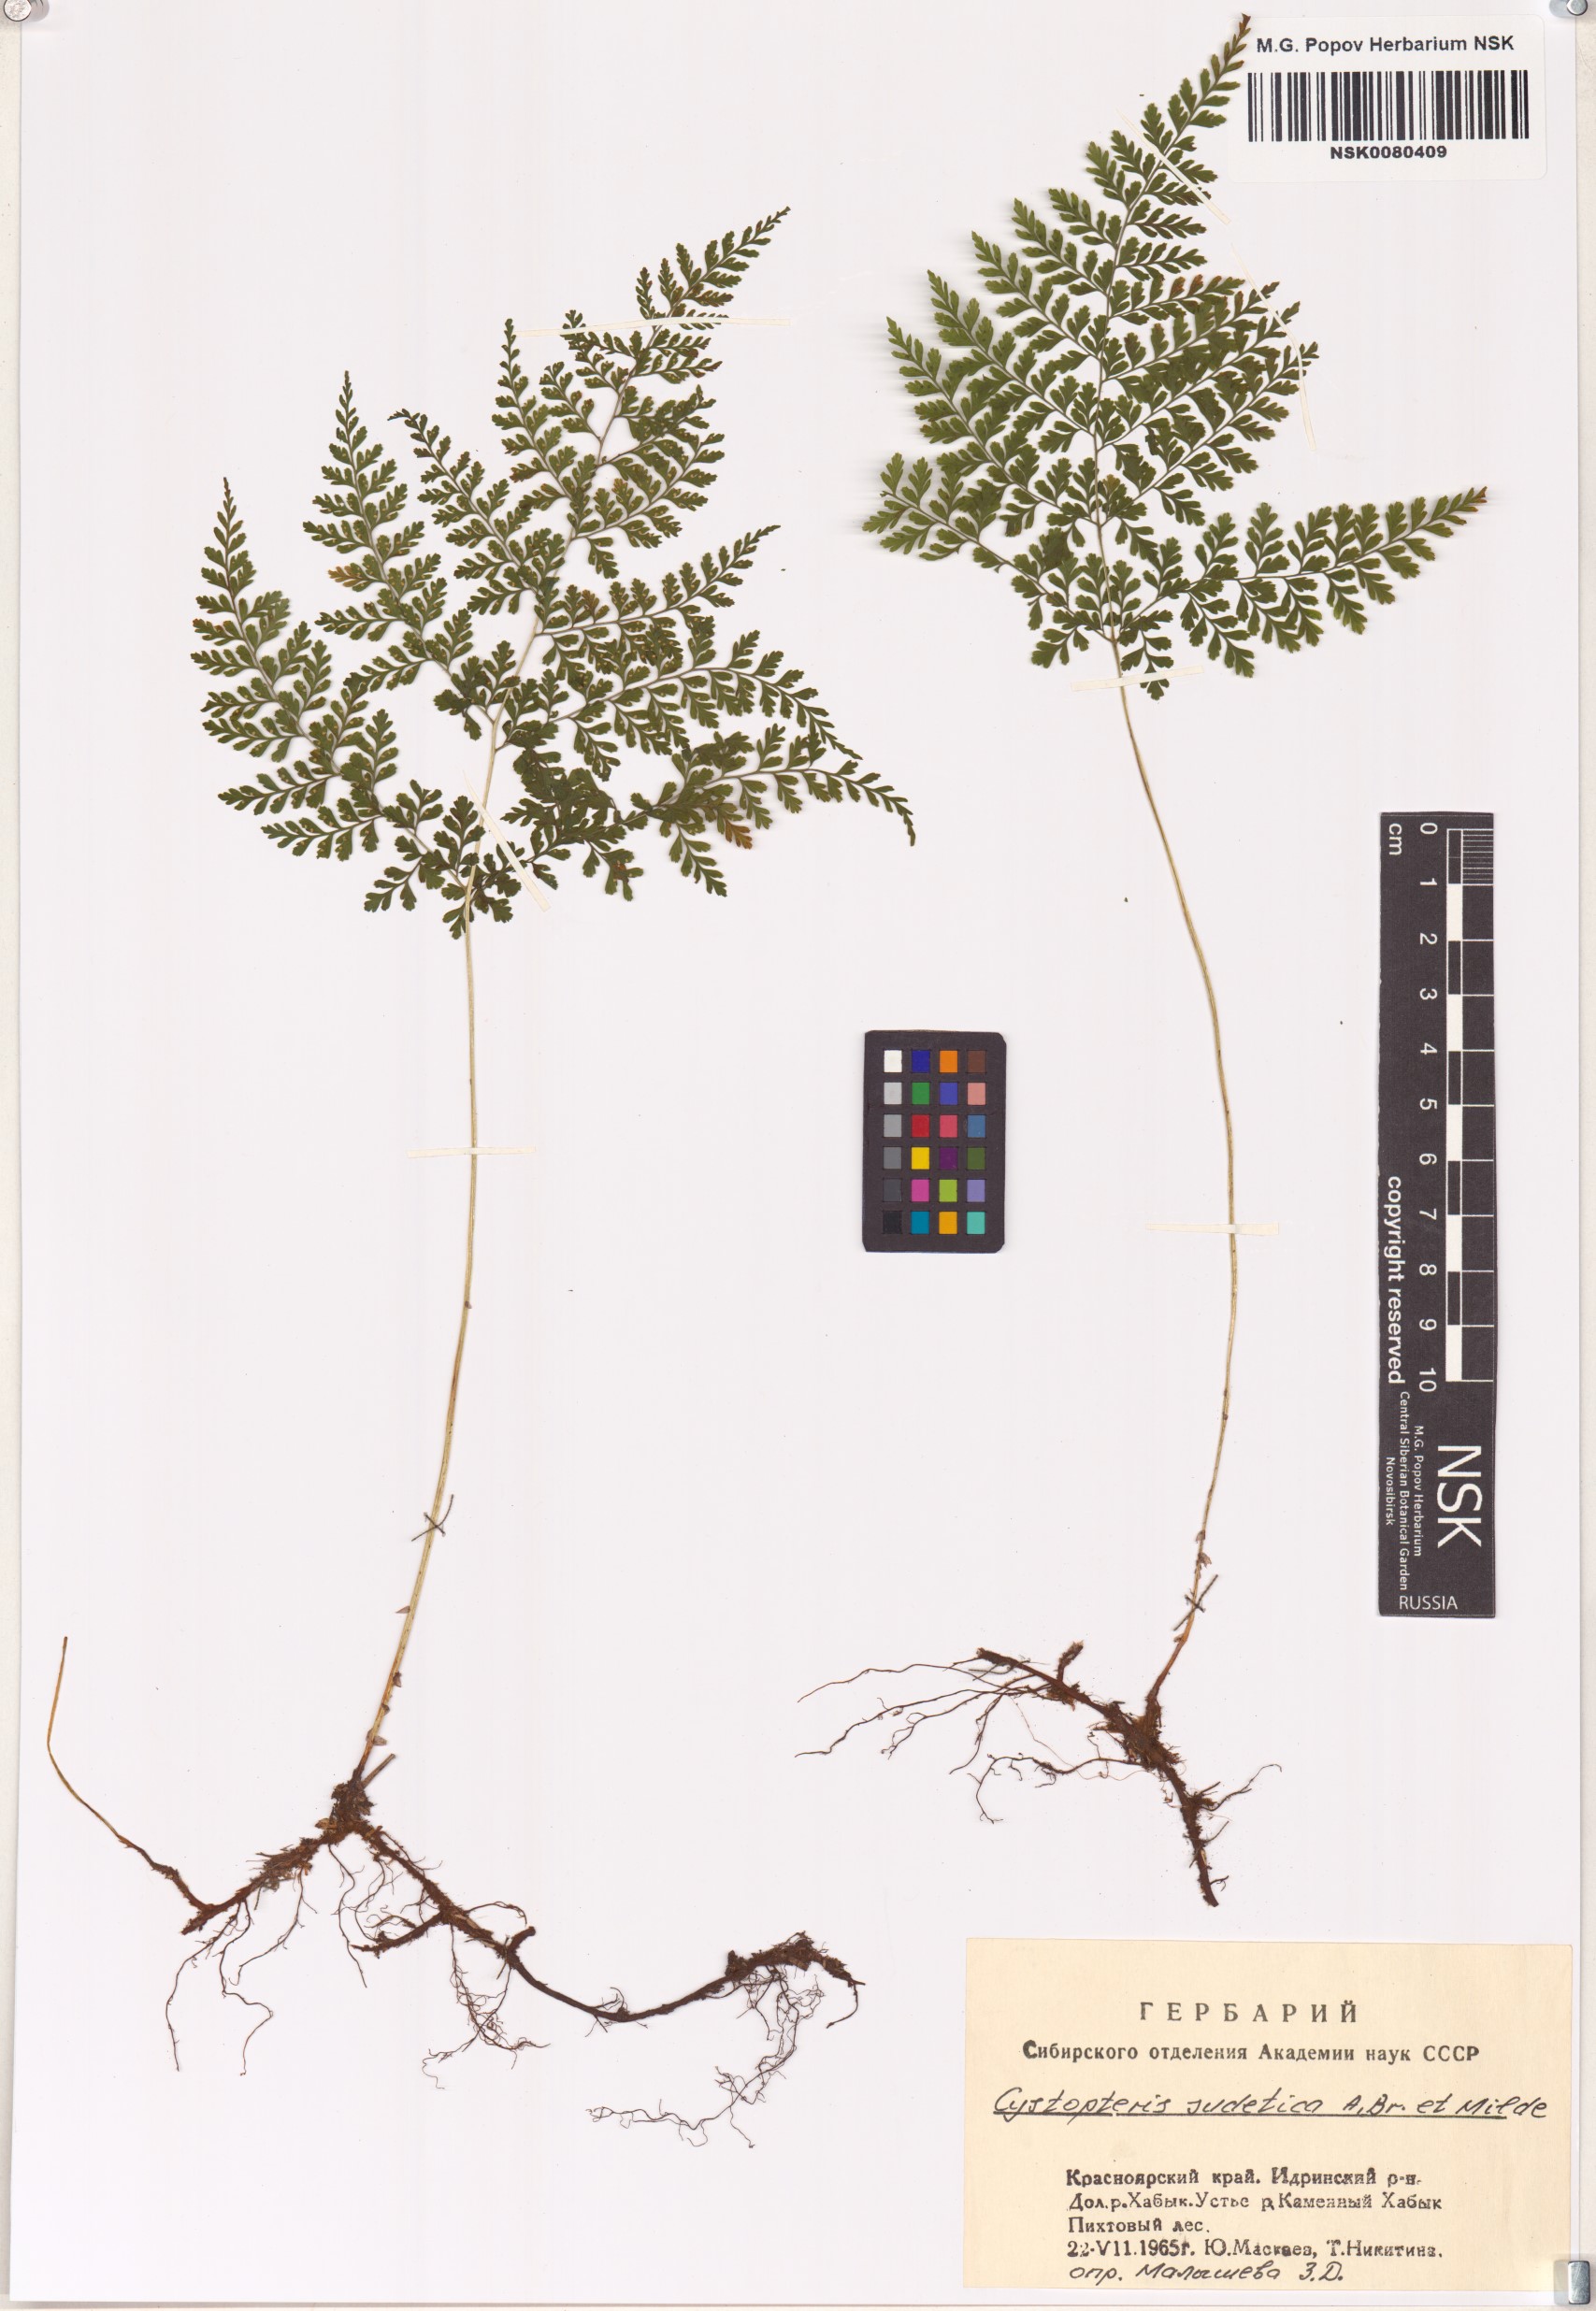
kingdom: Plantae
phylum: Tracheophyta
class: Polypodiopsida
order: Polypodiales
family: Cystopteridaceae
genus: Cystopteris
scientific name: Cystopteris sudetica
